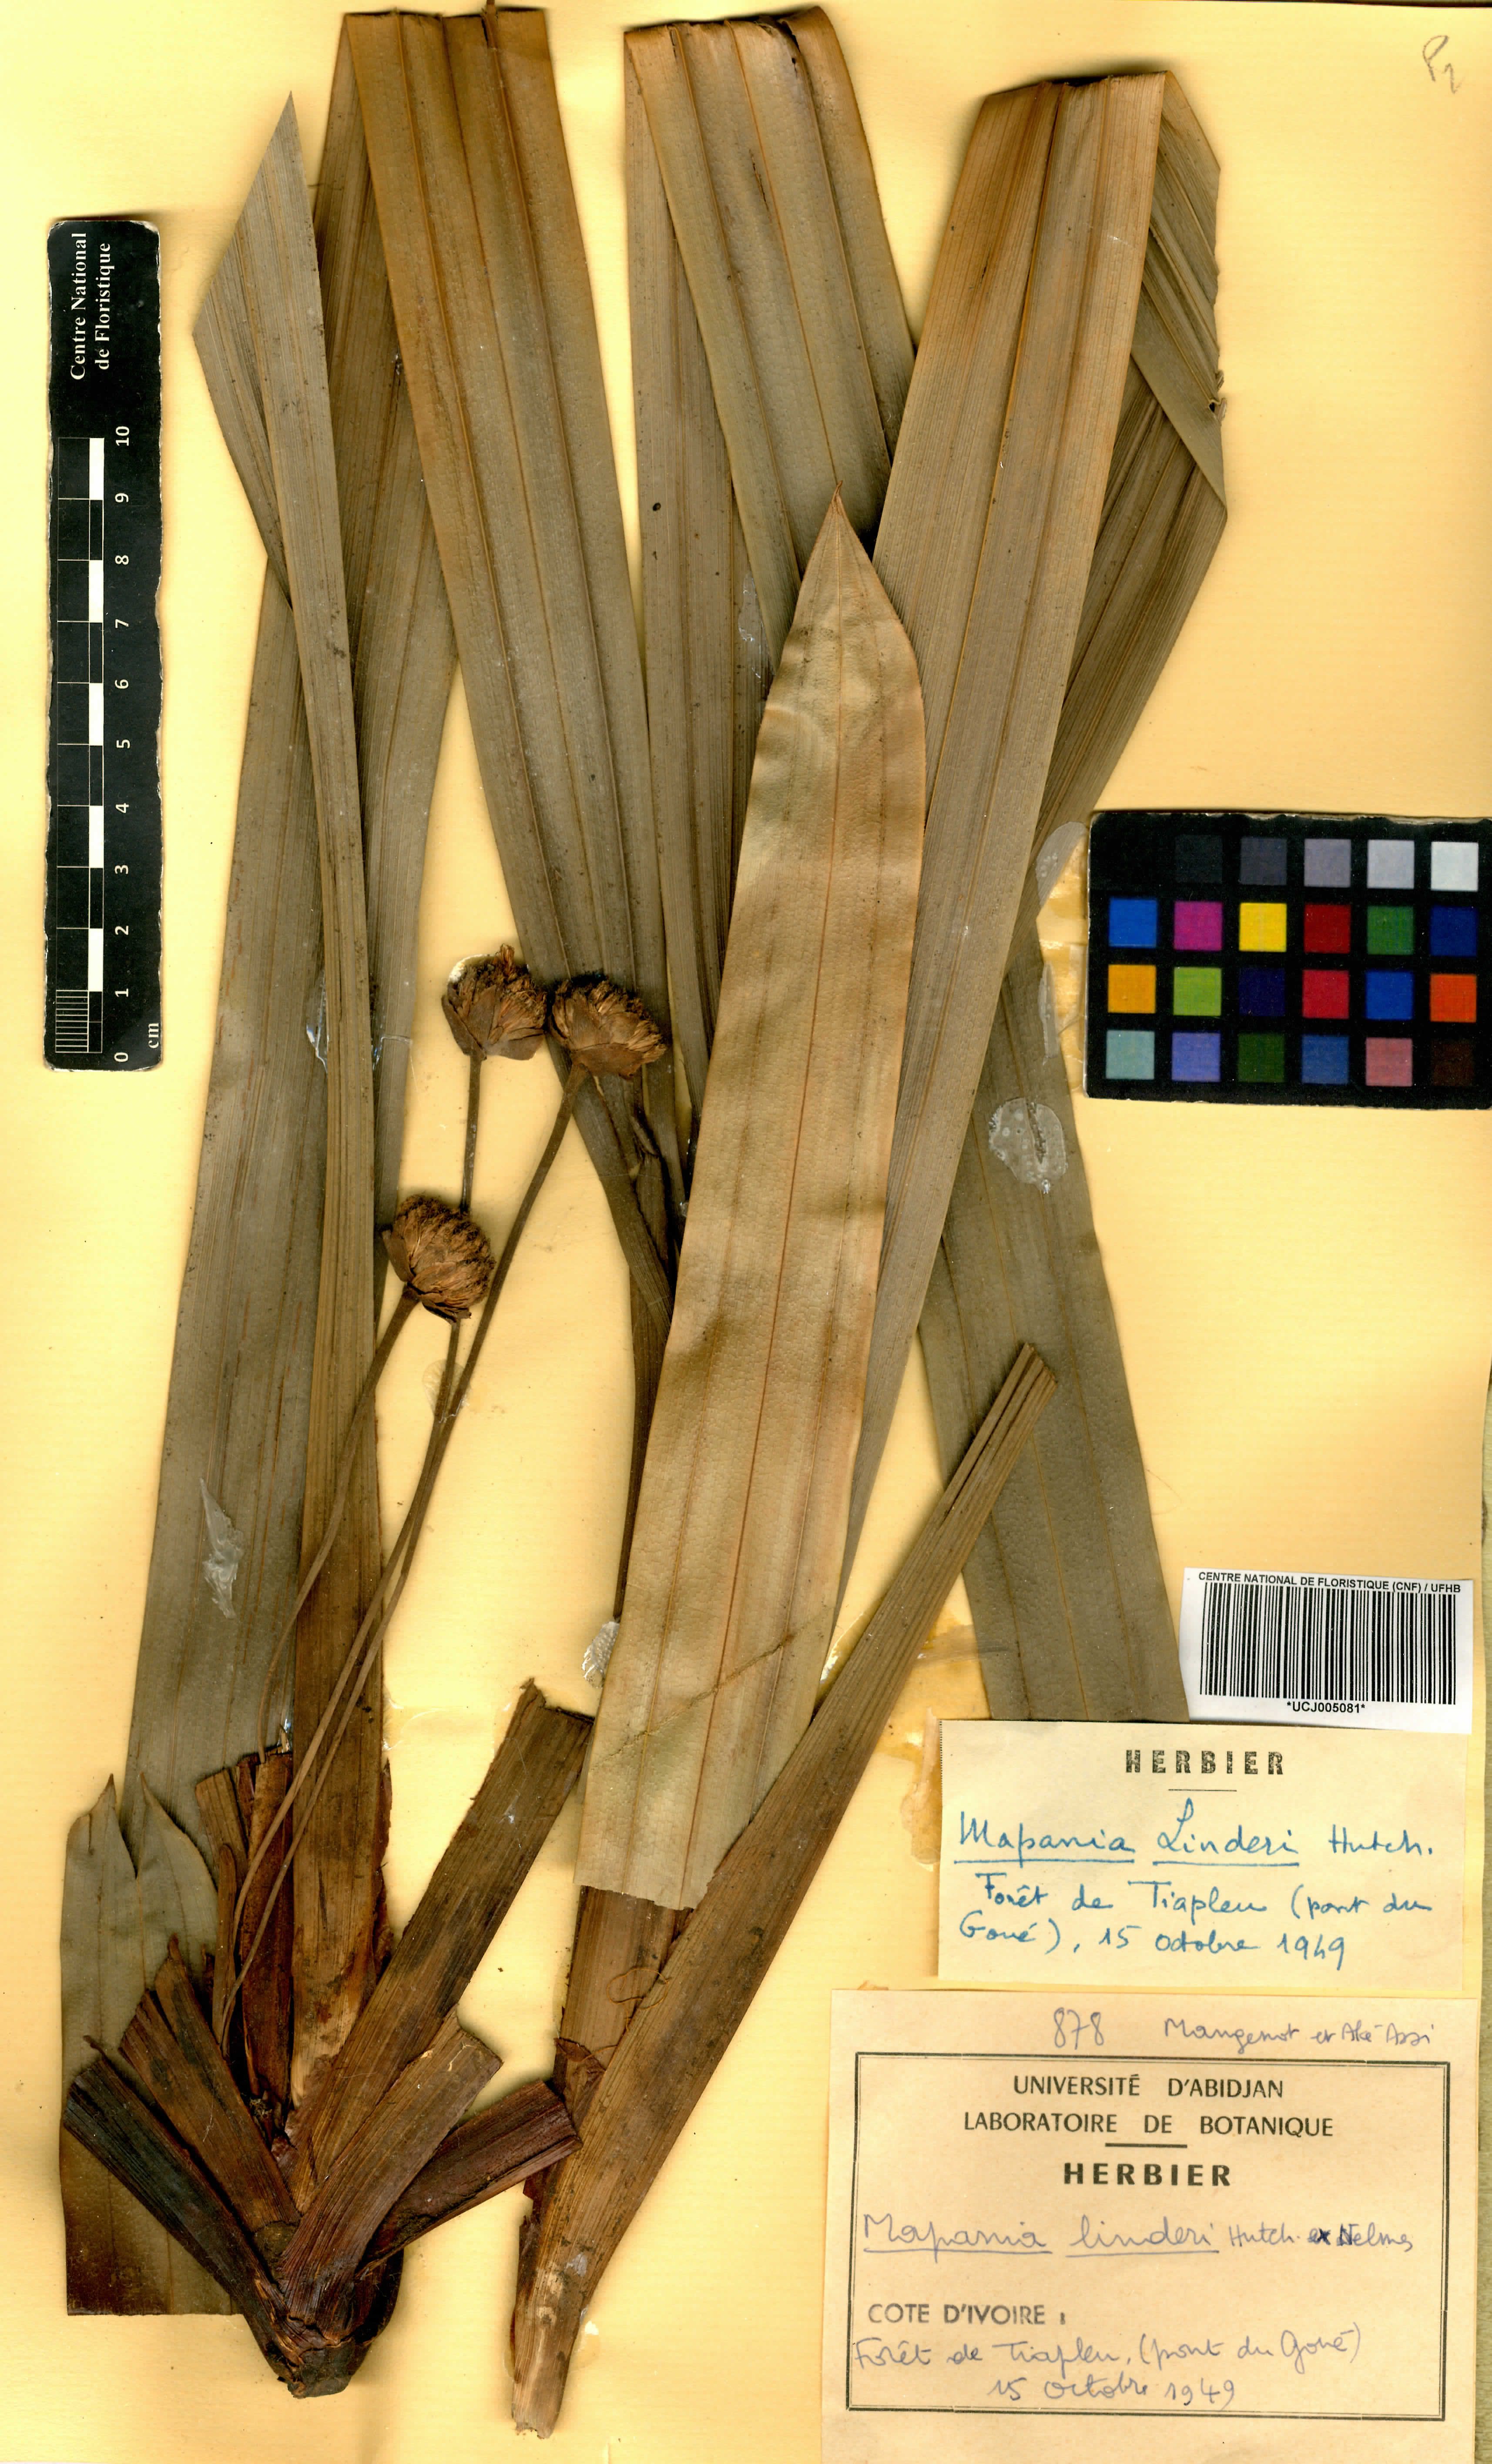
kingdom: Plantae
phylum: Tracheophyta
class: Liliopsida
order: Poales
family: Cyperaceae
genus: Mapania
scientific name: Mapania linderi
